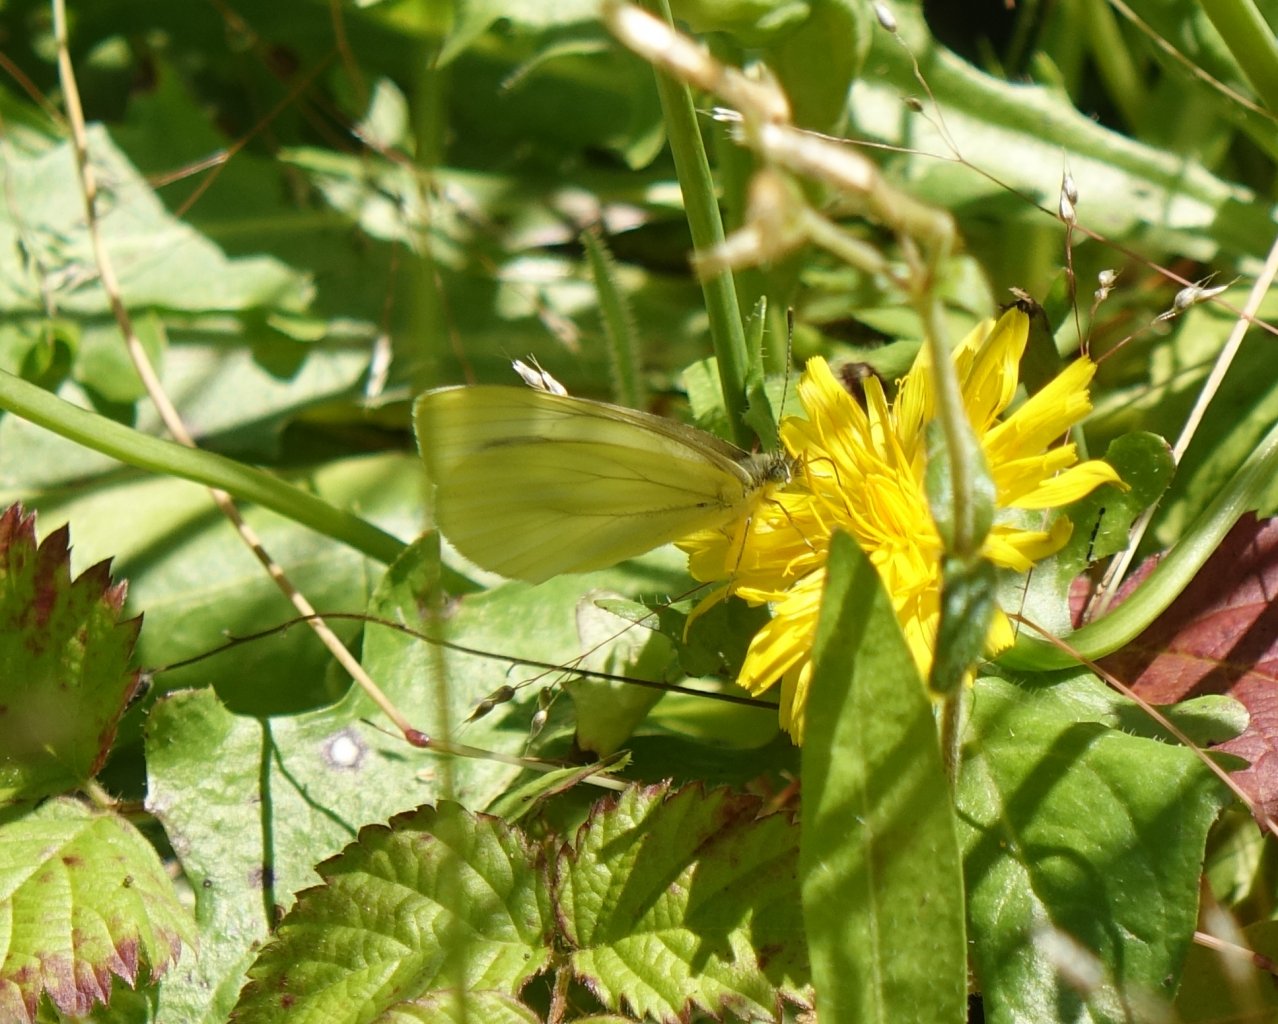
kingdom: Animalia
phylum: Arthropoda
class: Insecta
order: Lepidoptera
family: Pieridae
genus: Pieris
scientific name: Pieris marginalis
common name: Margined White
